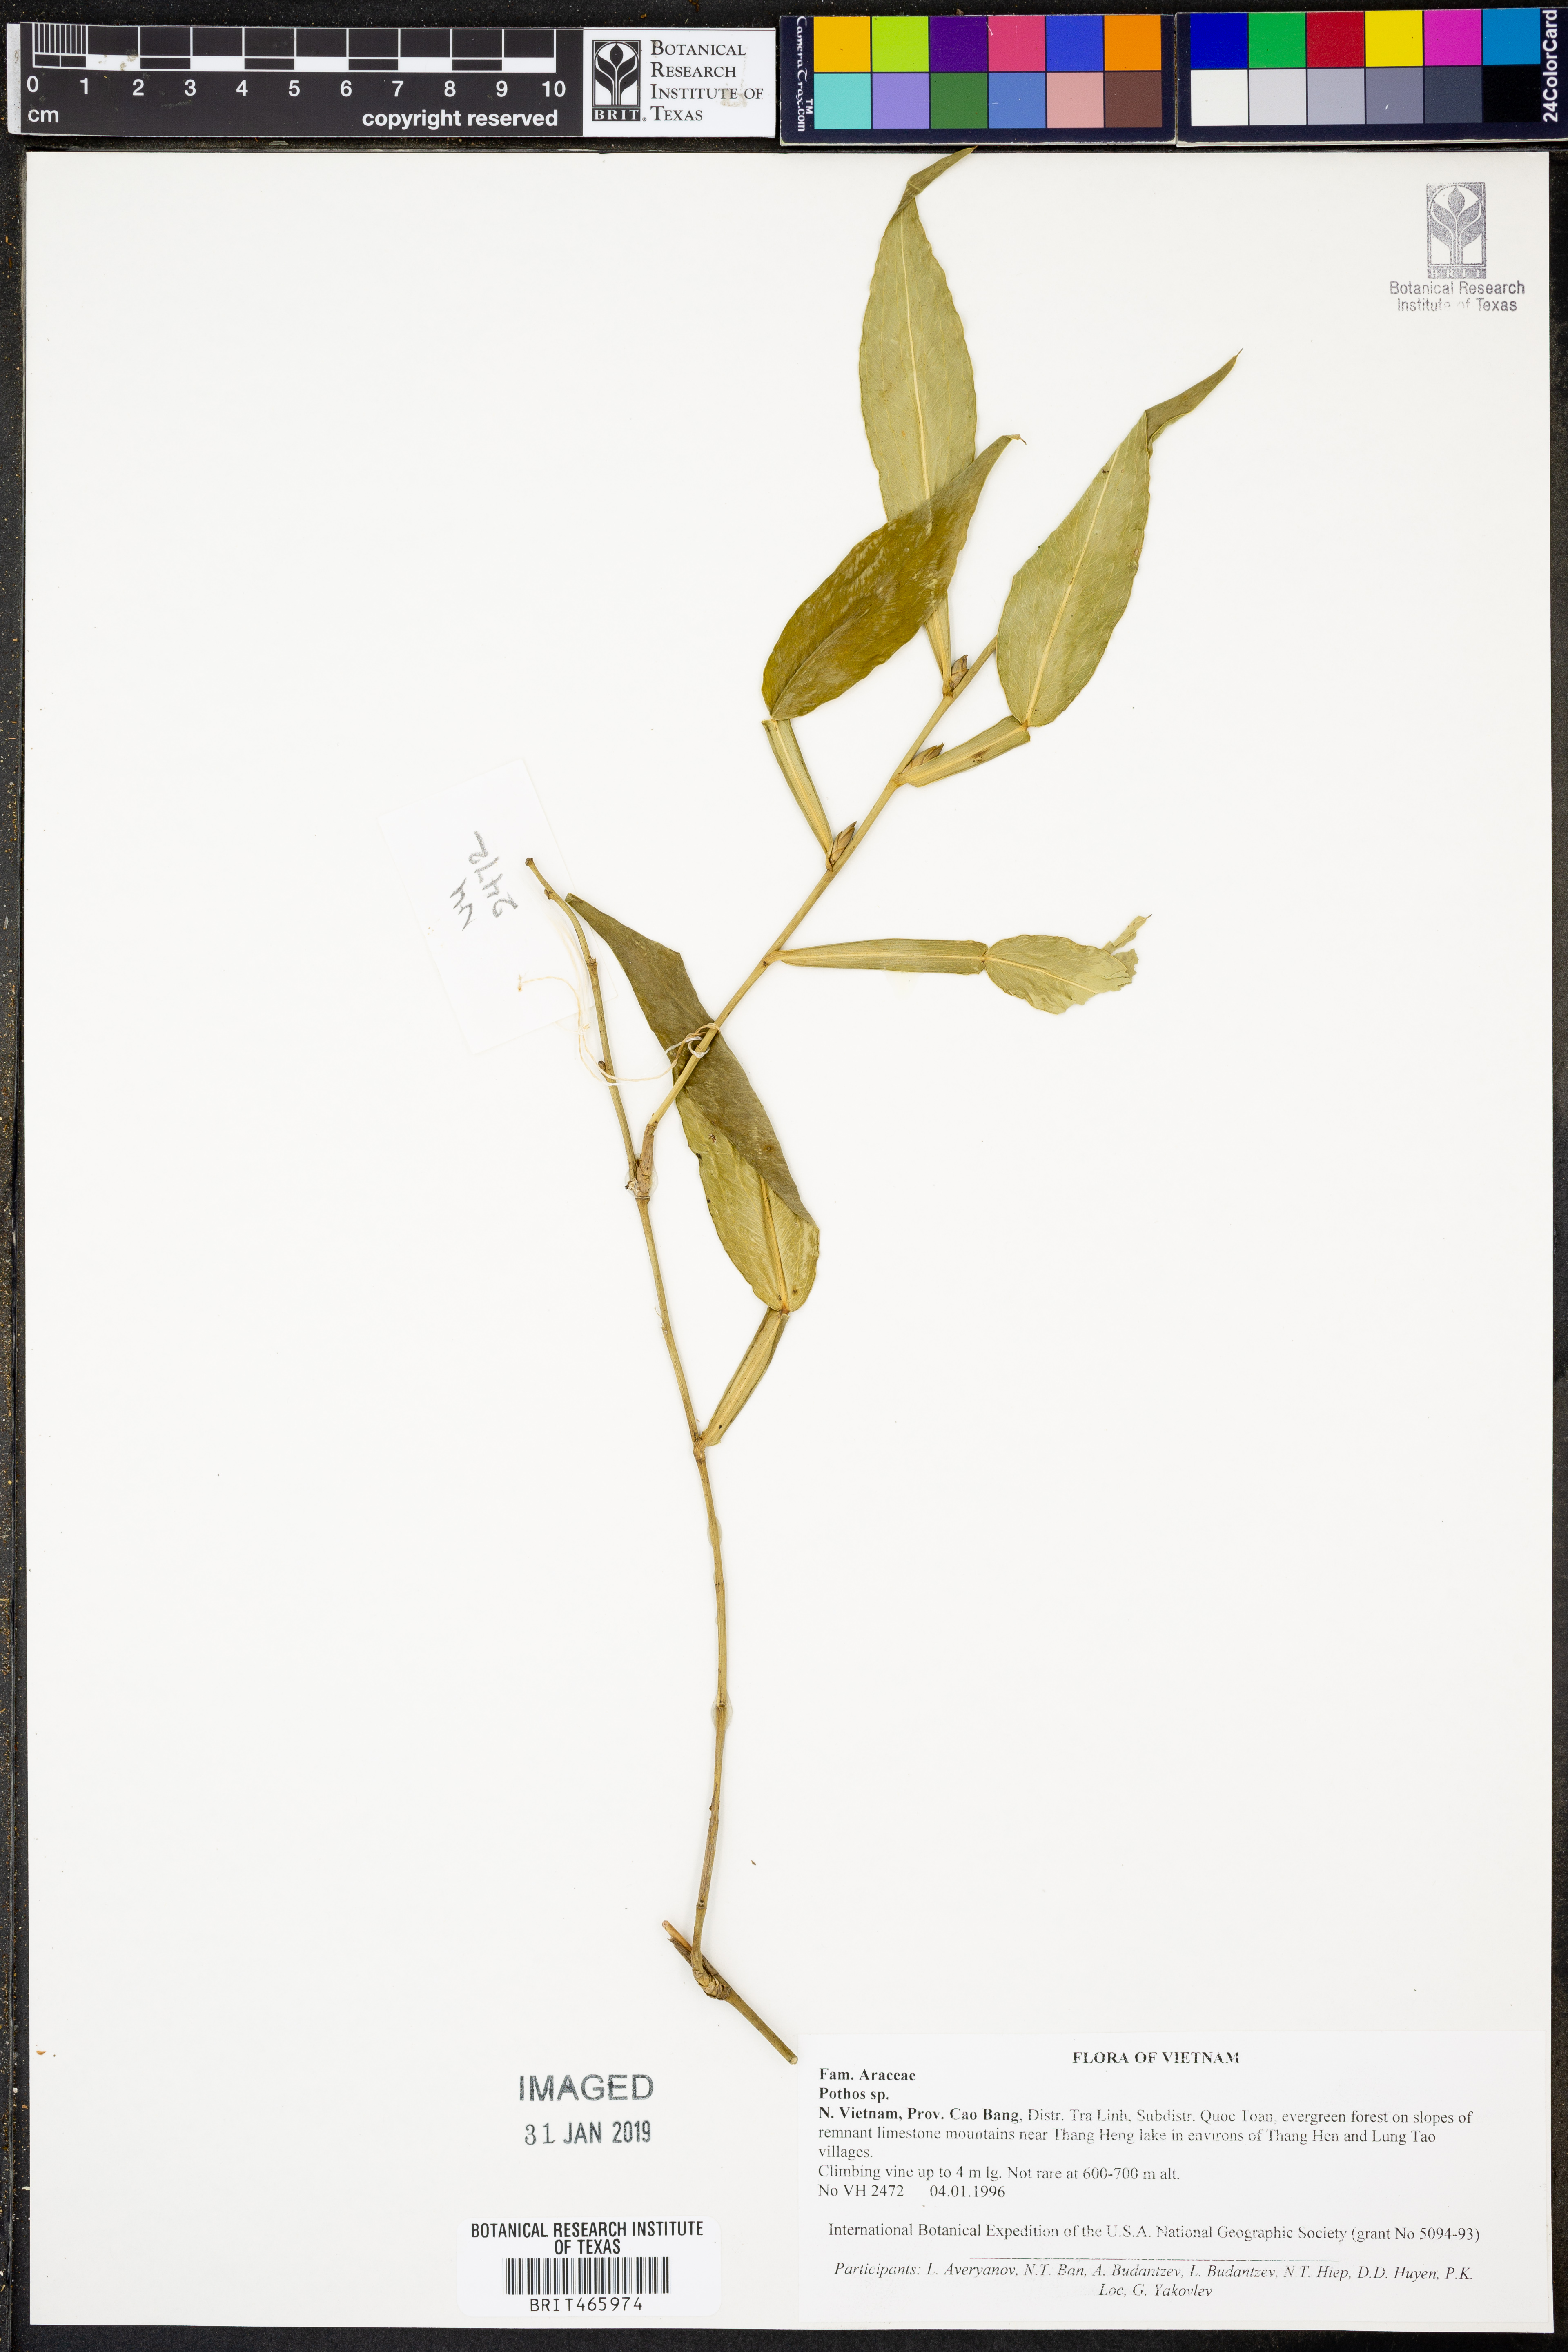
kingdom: Plantae
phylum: Tracheophyta
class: Liliopsida
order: Alismatales
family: Araceae
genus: Pothos
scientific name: Pothos
